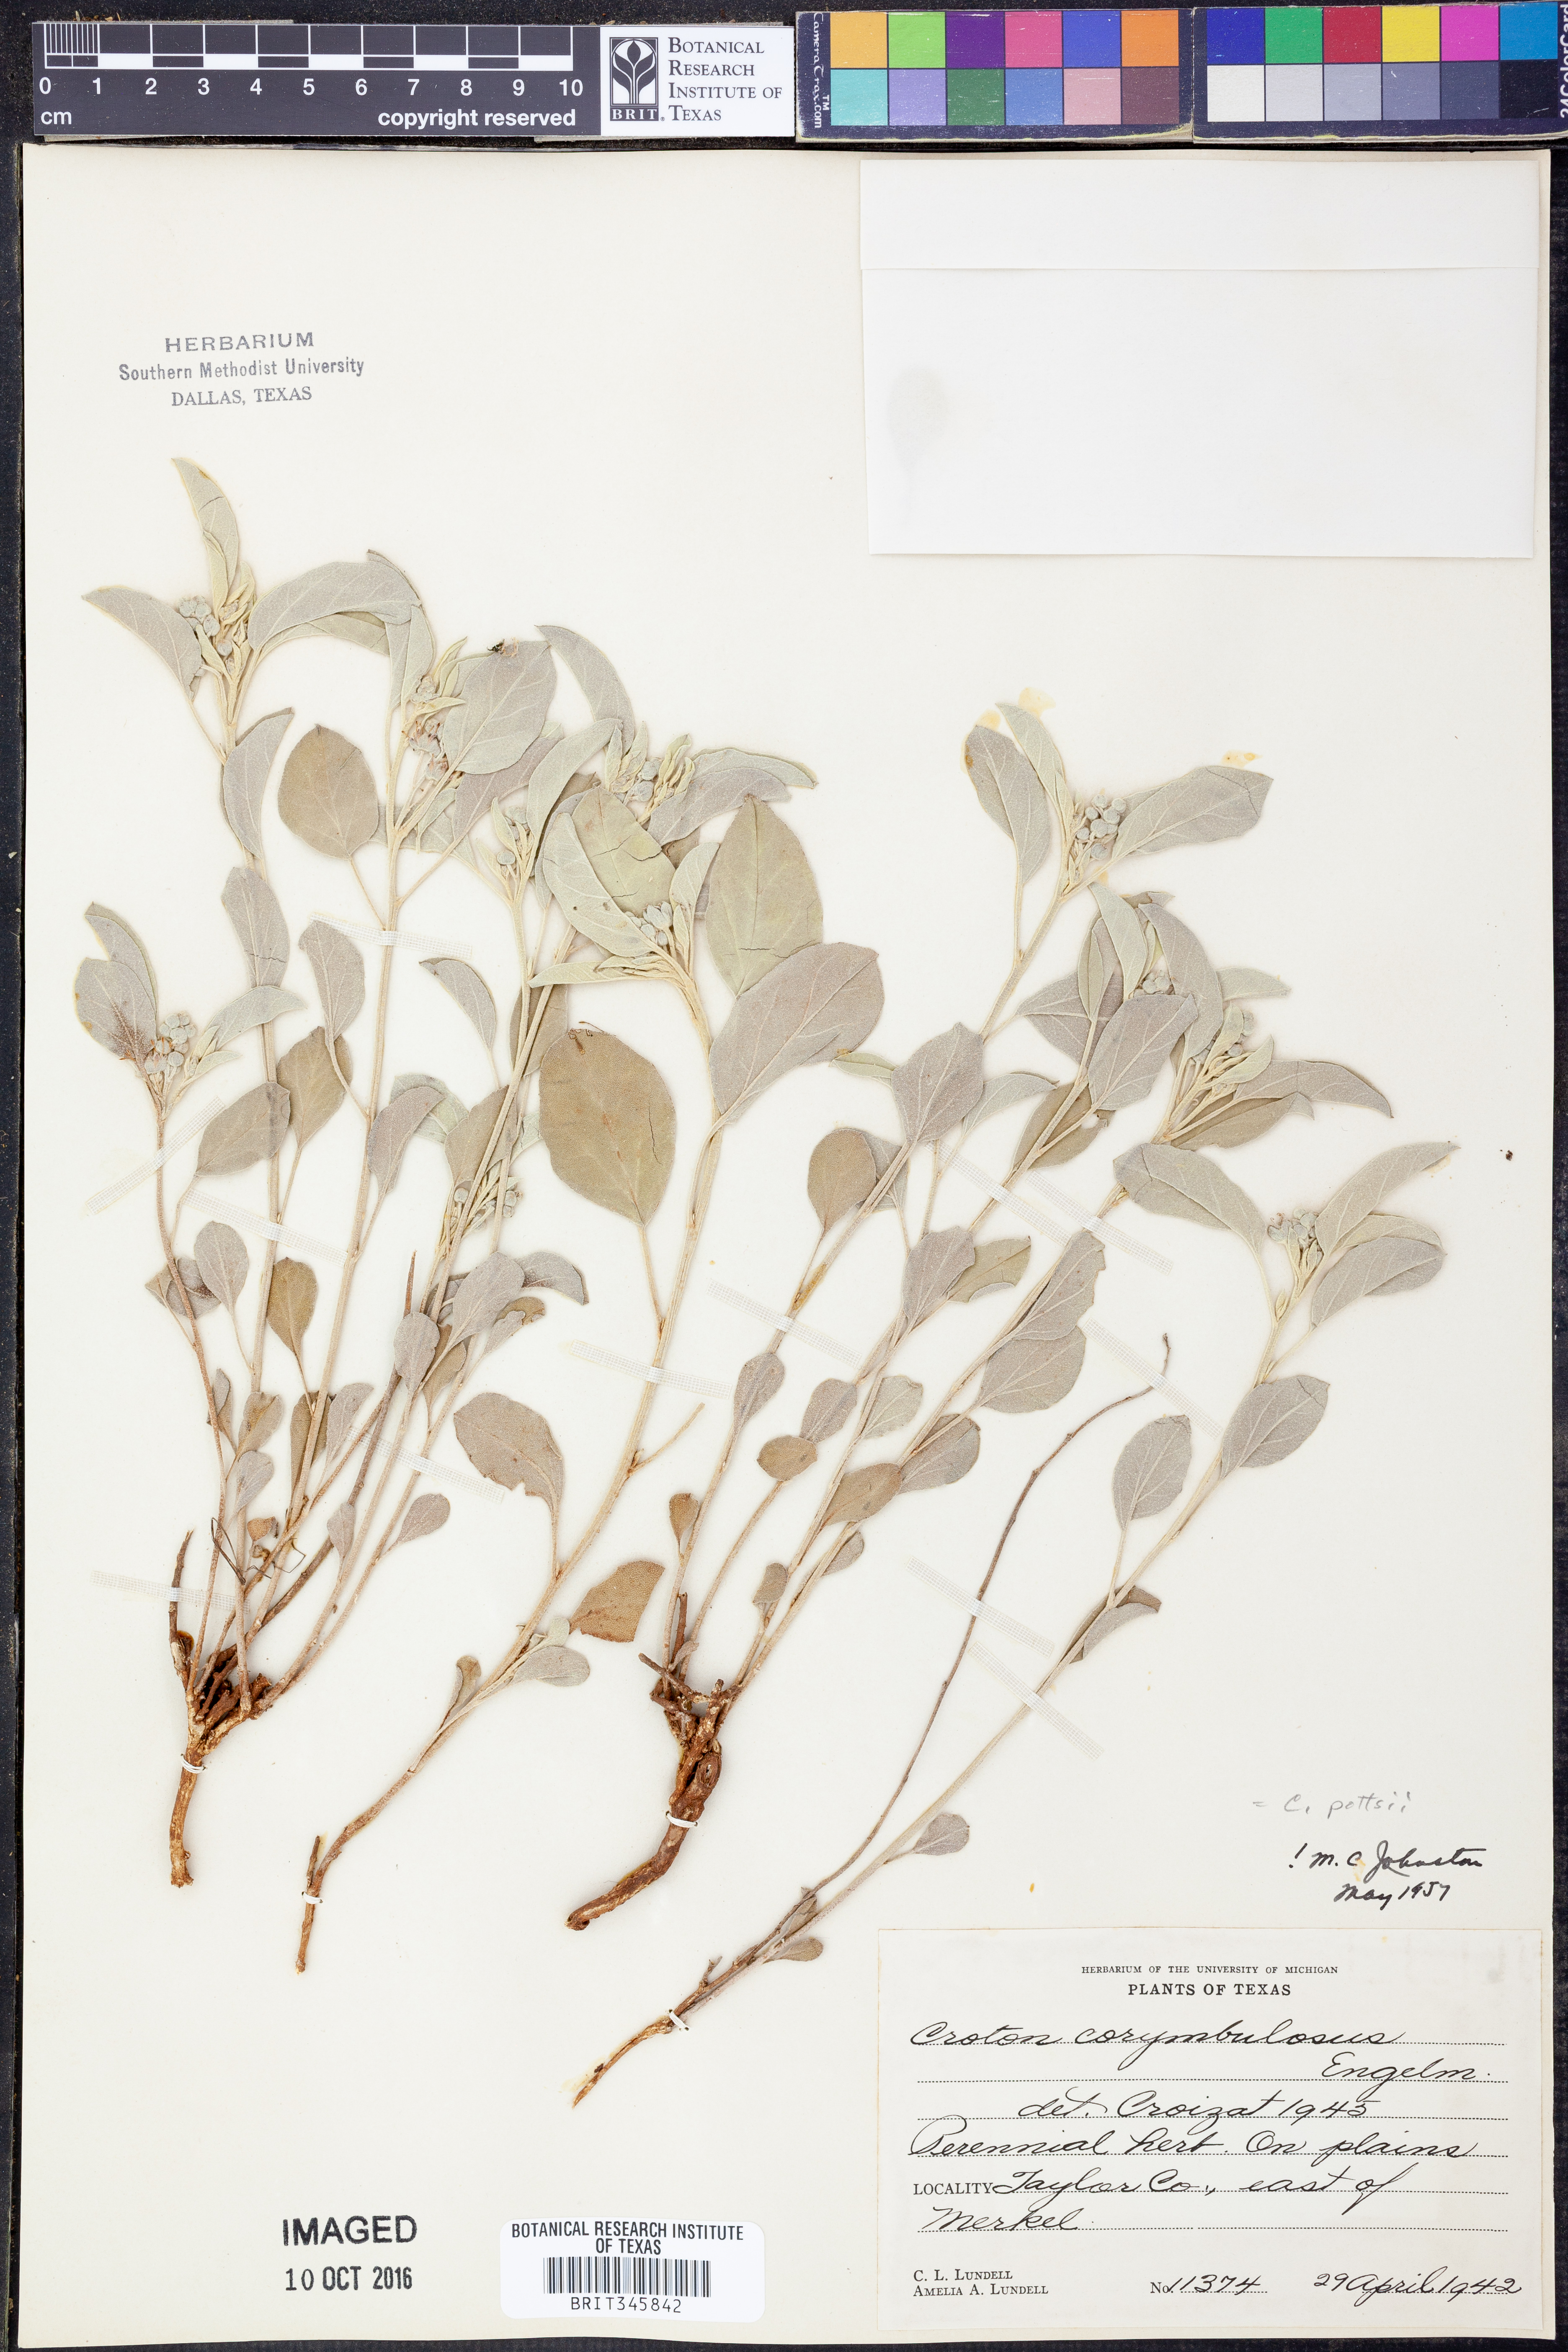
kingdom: Plantae
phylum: Tracheophyta
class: Magnoliopsida
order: Malpighiales
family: Euphorbiaceae
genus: Croton
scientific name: Croton pottsii
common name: Leatherweed
